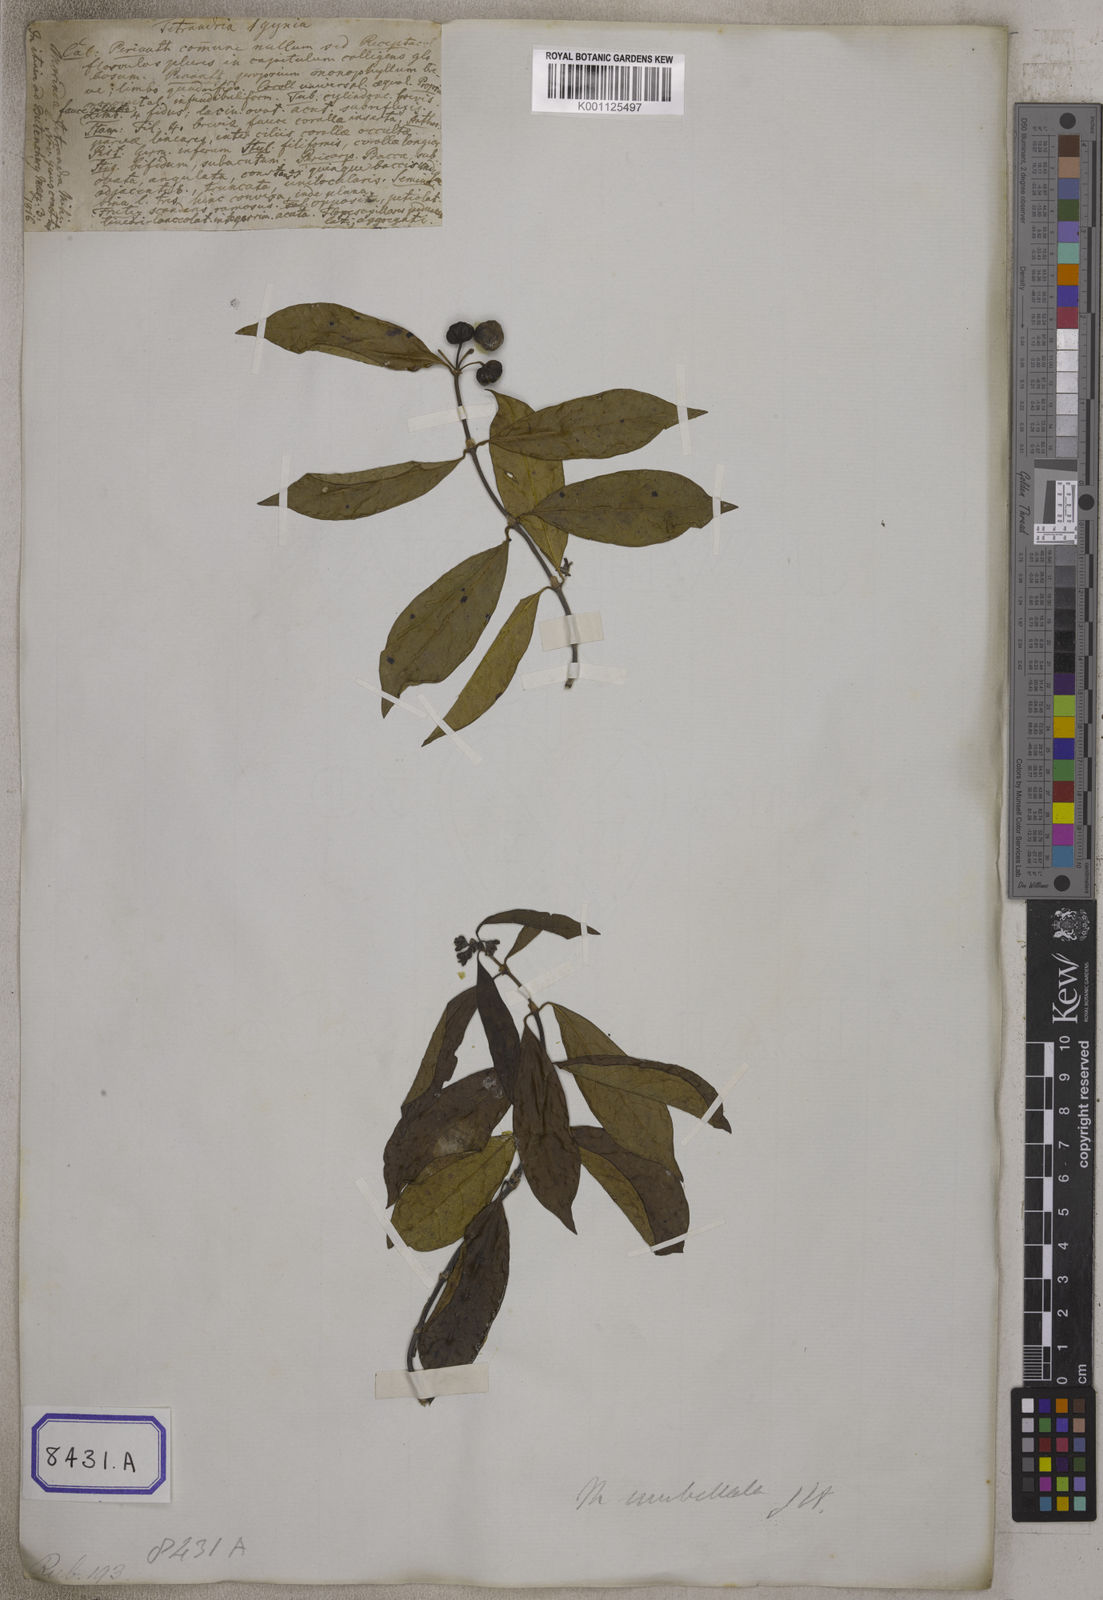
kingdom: Plantae
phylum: Tracheophyta
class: Magnoliopsida
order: Gentianales
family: Rubiaceae
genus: Gynochthodes
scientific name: Gynochthodes umbellata
